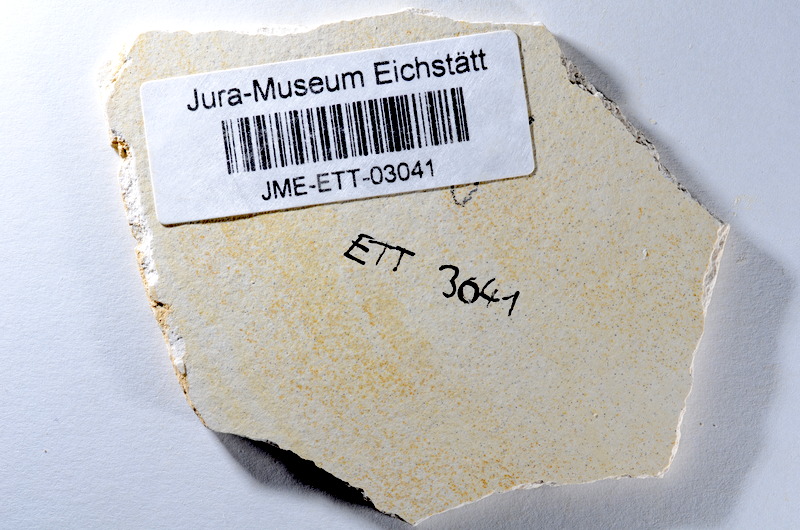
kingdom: Animalia
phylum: Chordata
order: Salmoniformes
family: Orthogonikleithridae
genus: Orthogonikleithrus
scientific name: Orthogonikleithrus hoelli
